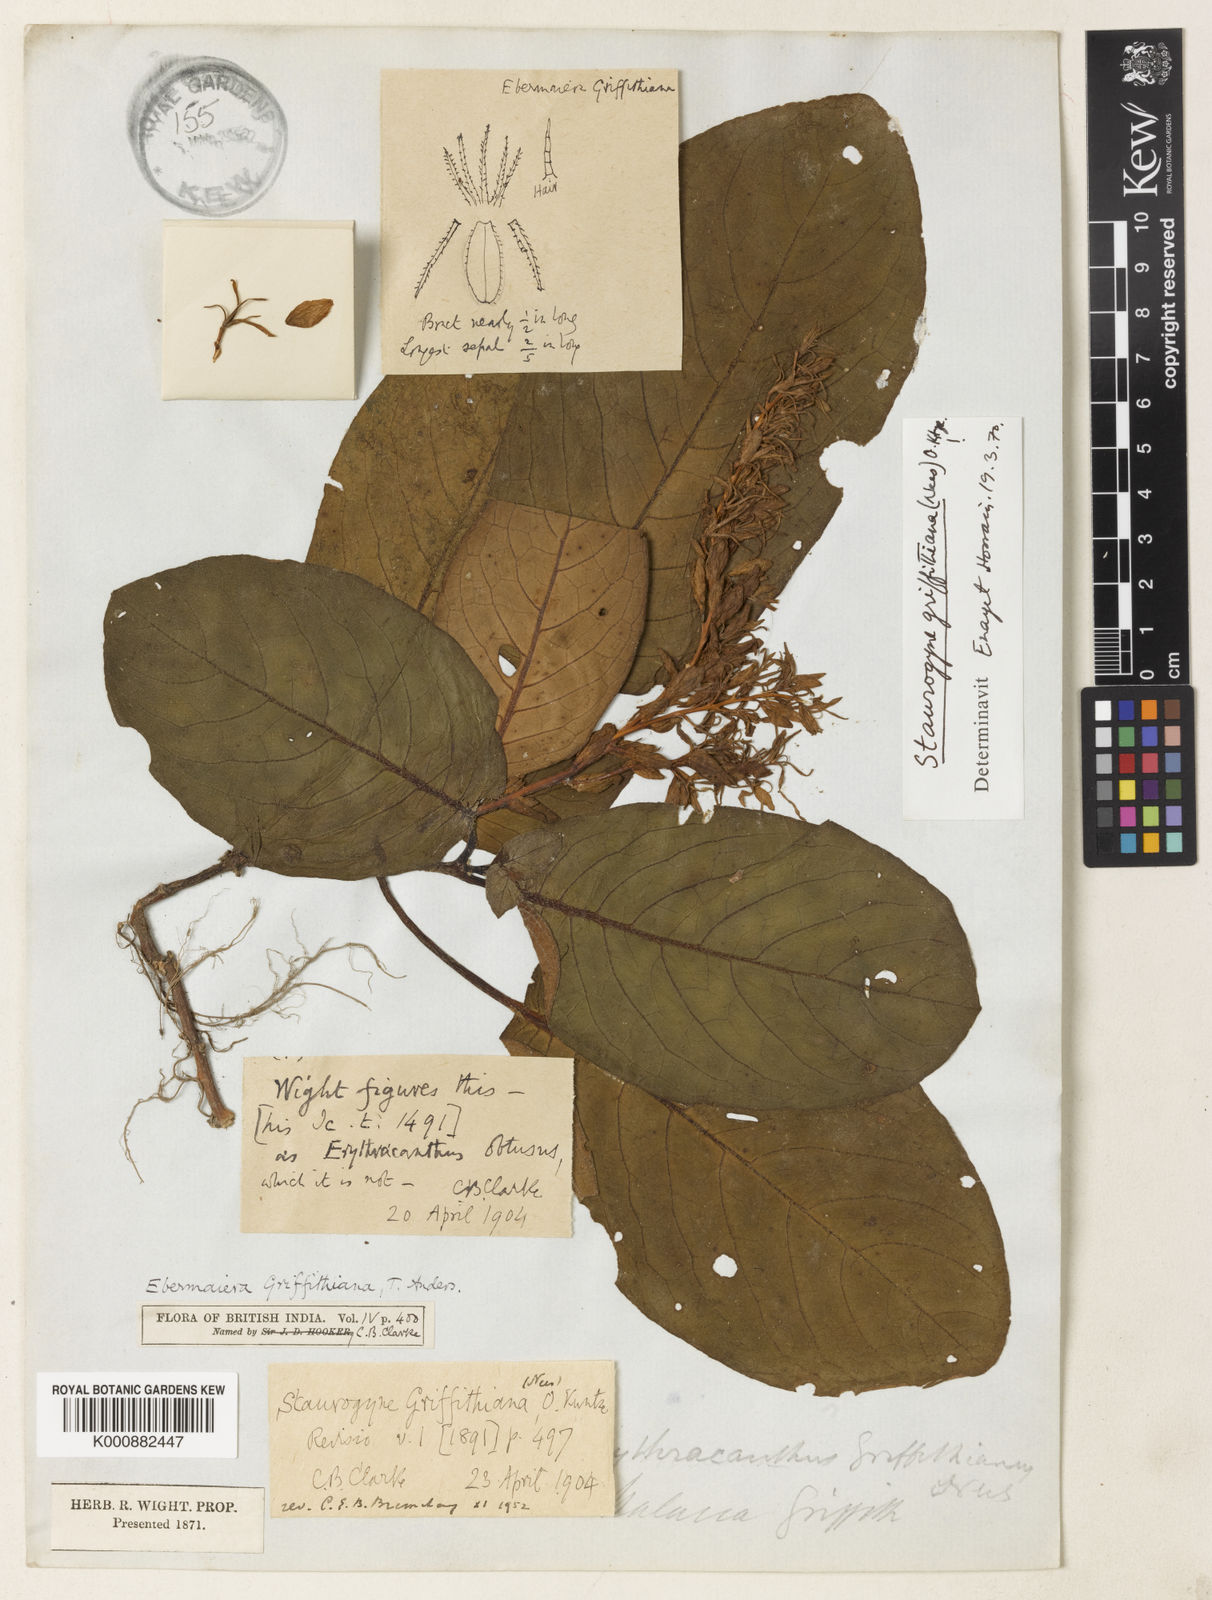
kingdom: Plantae
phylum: Tracheophyta
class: Magnoliopsida
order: Lamiales
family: Acanthaceae
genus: Staurogyne
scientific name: Staurogyne griffithiana
